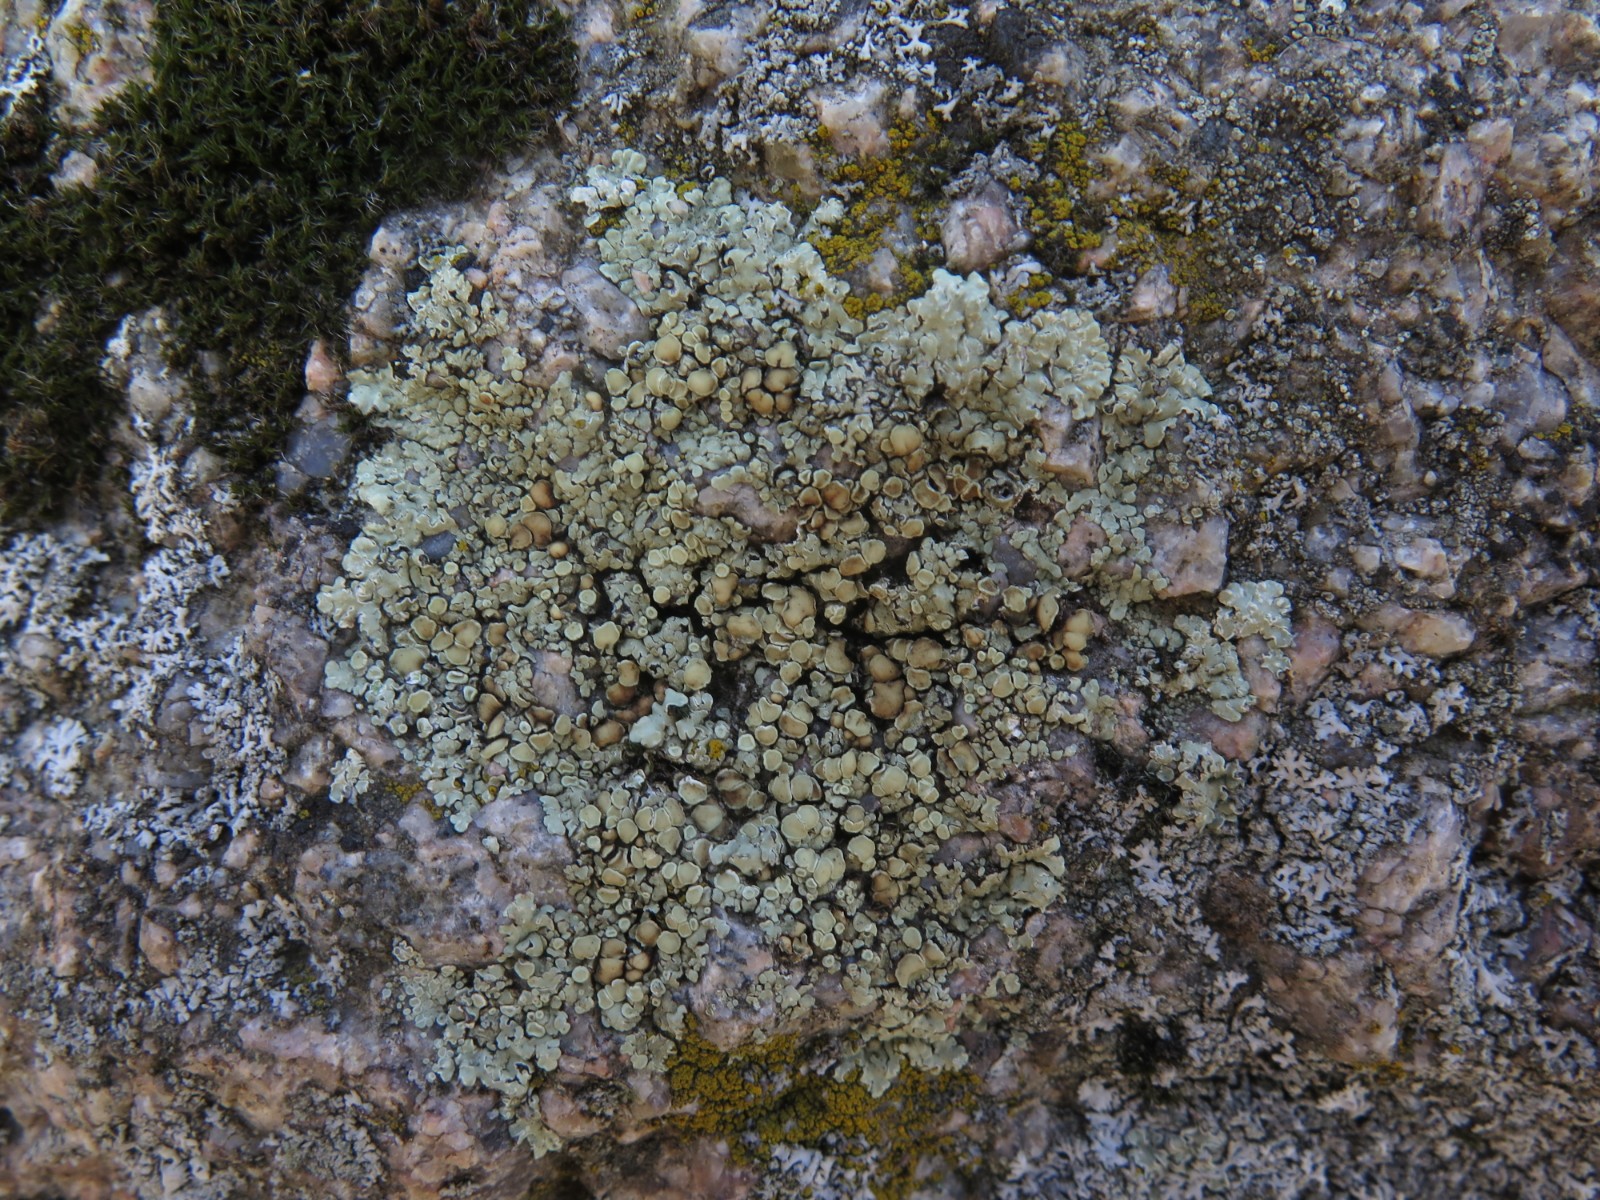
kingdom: Fungi
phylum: Ascomycota
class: Lecanoromycetes
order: Lecanorales
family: Lecanoraceae
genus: Protoparmeliopsis
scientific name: Protoparmeliopsis muralis
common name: randfliget kantskivelav
